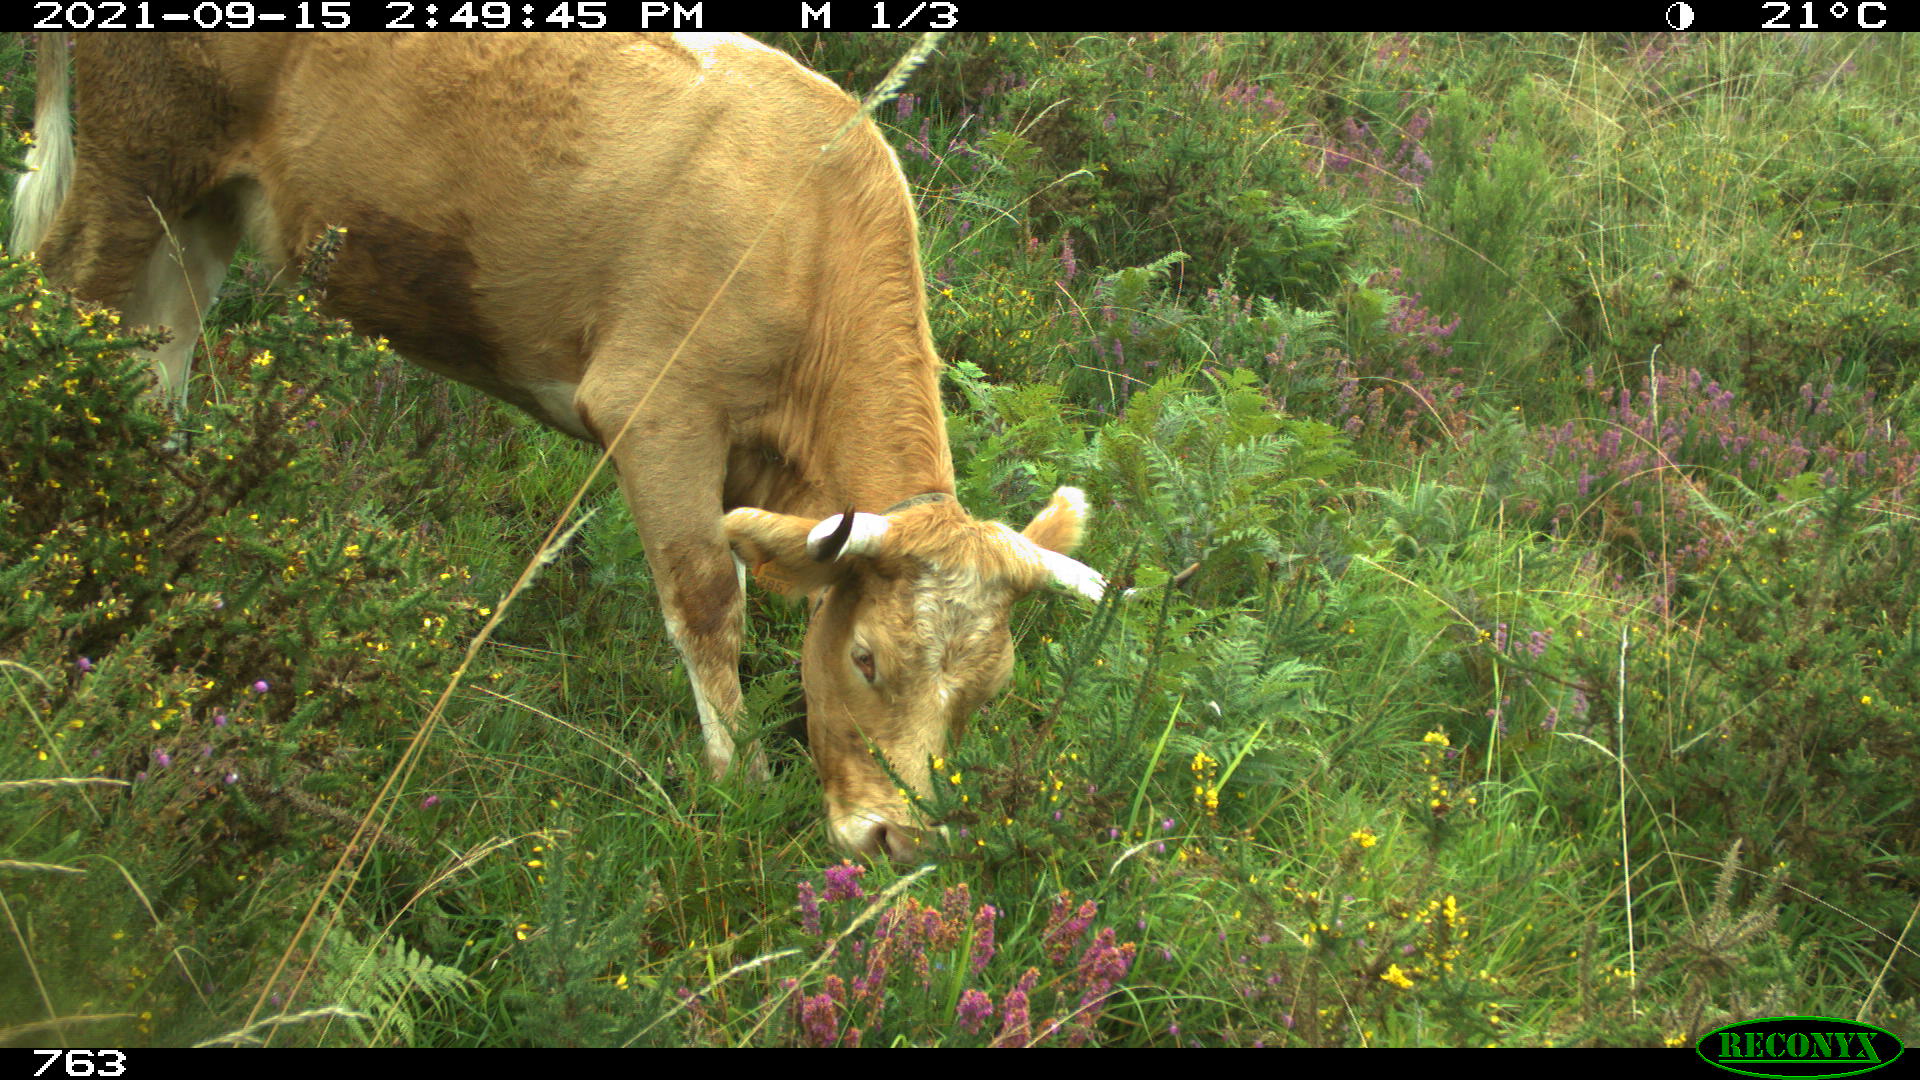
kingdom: Animalia
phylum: Chordata
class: Mammalia
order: Artiodactyla
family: Bovidae
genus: Bos
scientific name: Bos taurus
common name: Domesticated cattle
